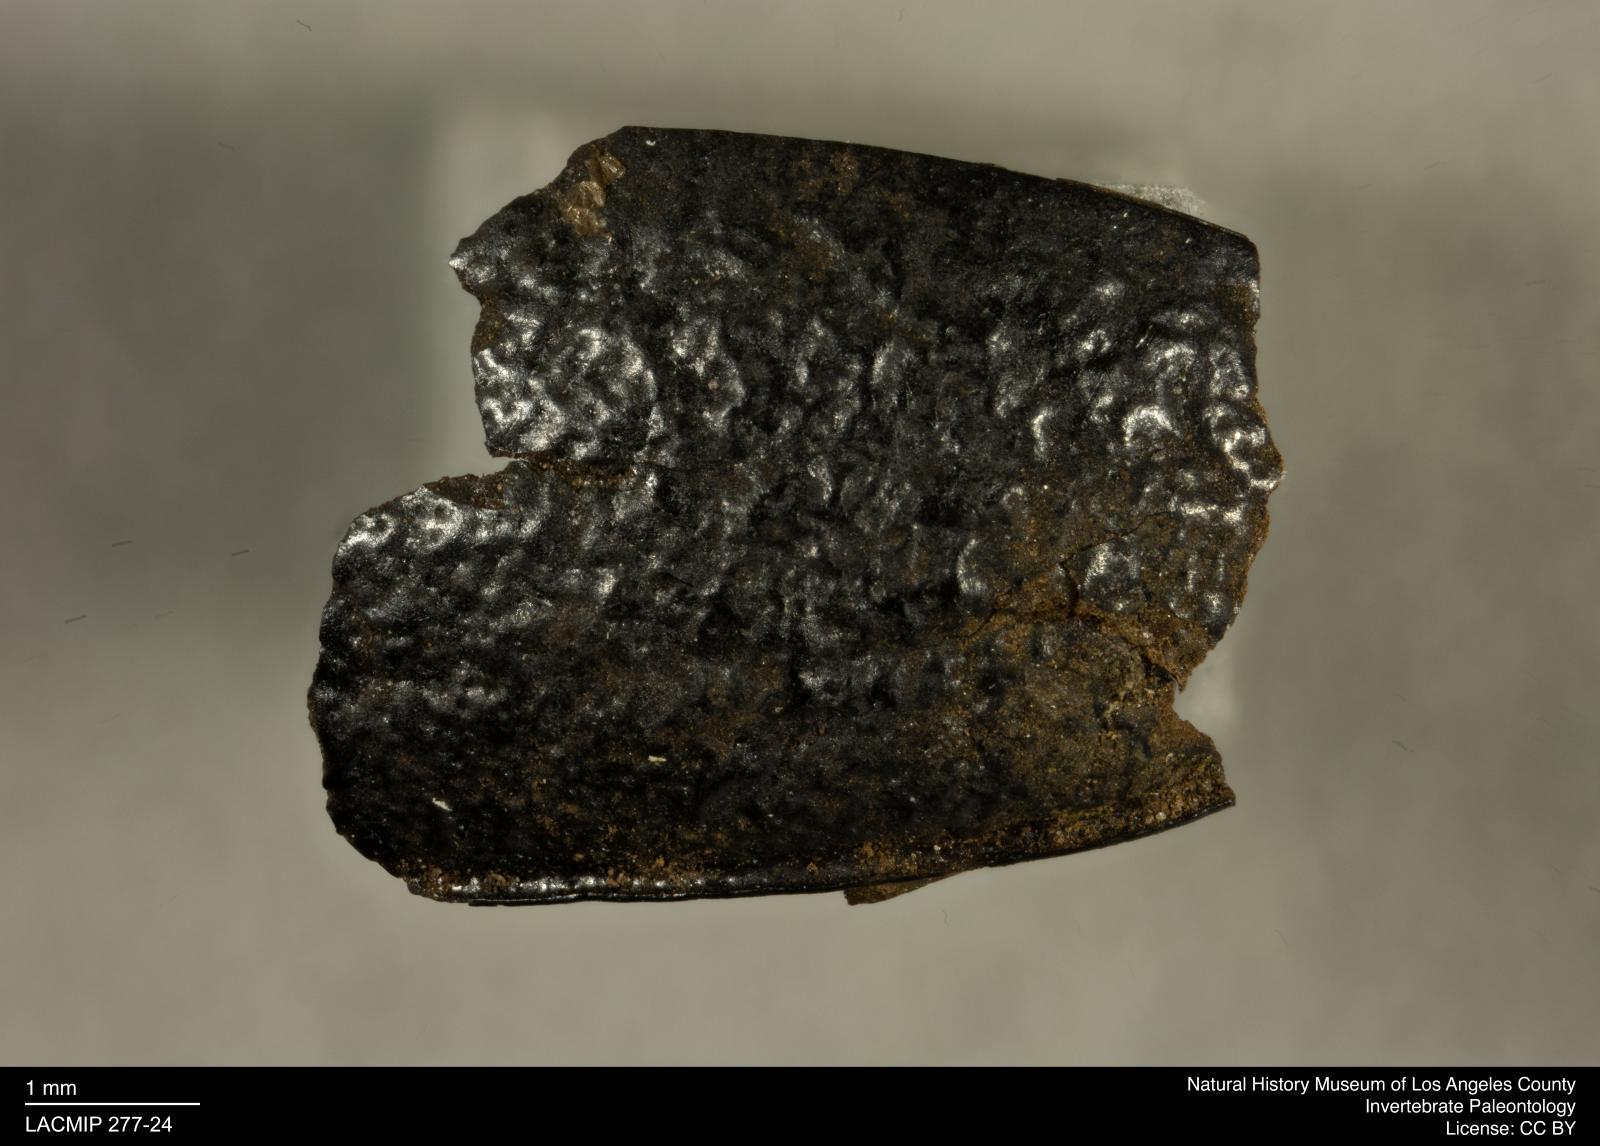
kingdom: Animalia
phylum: Arthropoda
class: Insecta
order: Coleoptera
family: Tenebrionidae
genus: Coniontis
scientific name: Coniontis abdominalis
